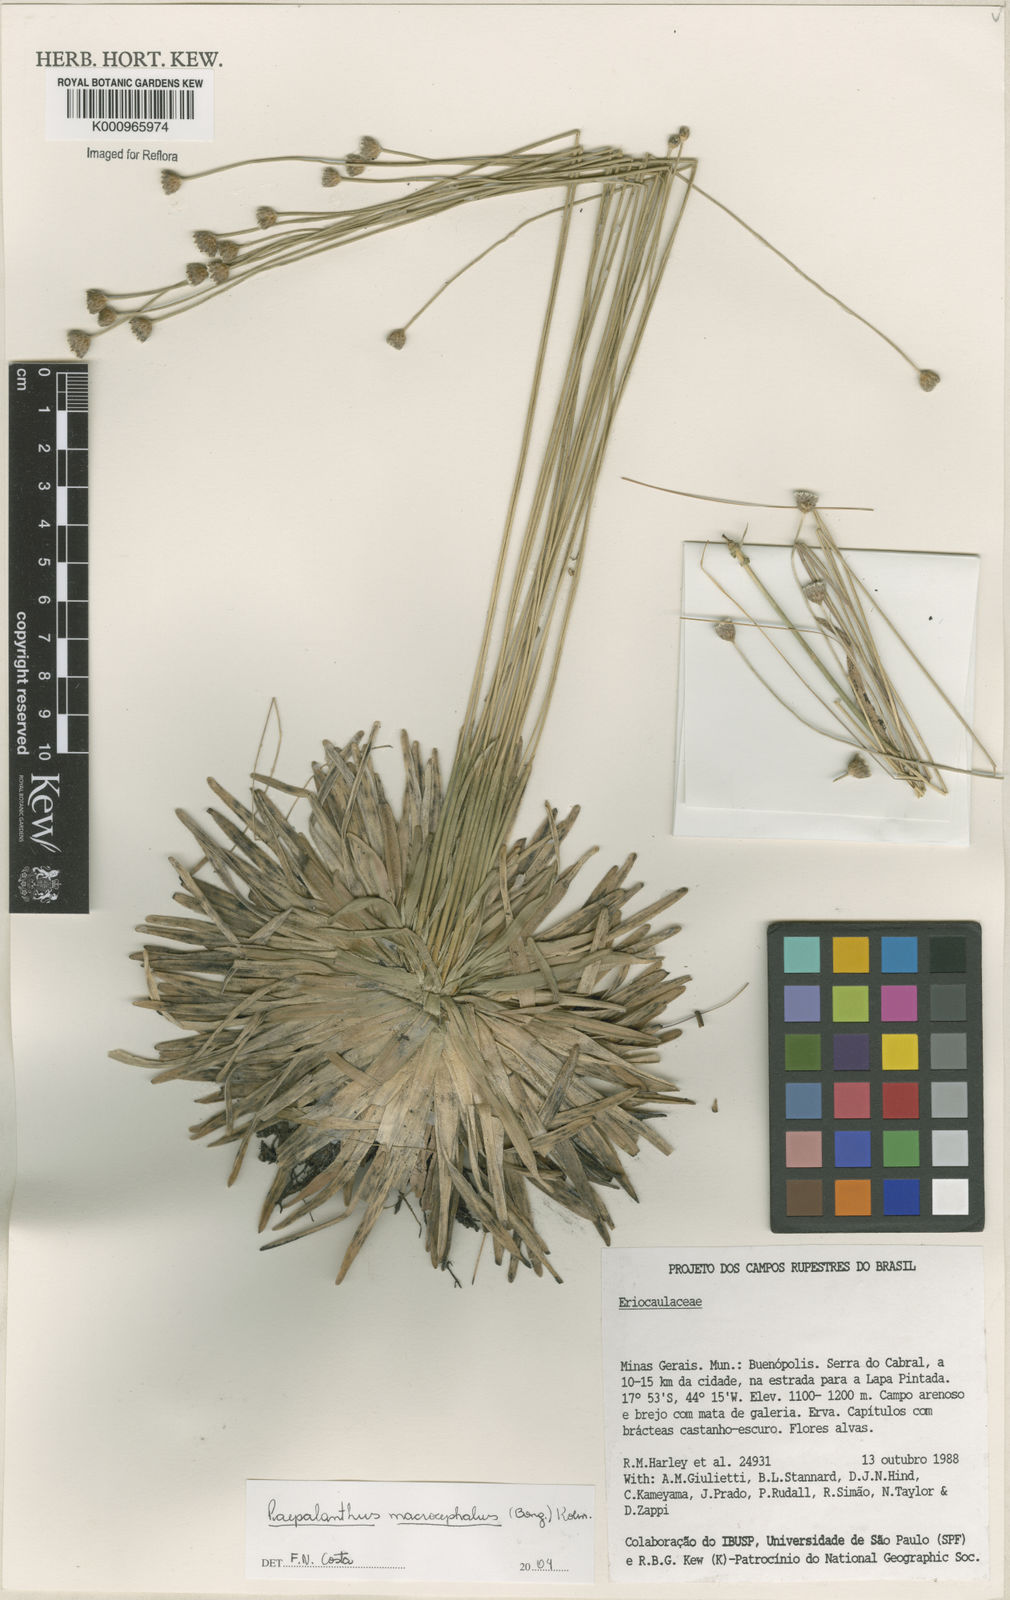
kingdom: Plantae
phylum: Tracheophyta
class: Liliopsida
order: Poales
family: Eriocaulaceae
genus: Paepalanthus
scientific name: Paepalanthus
